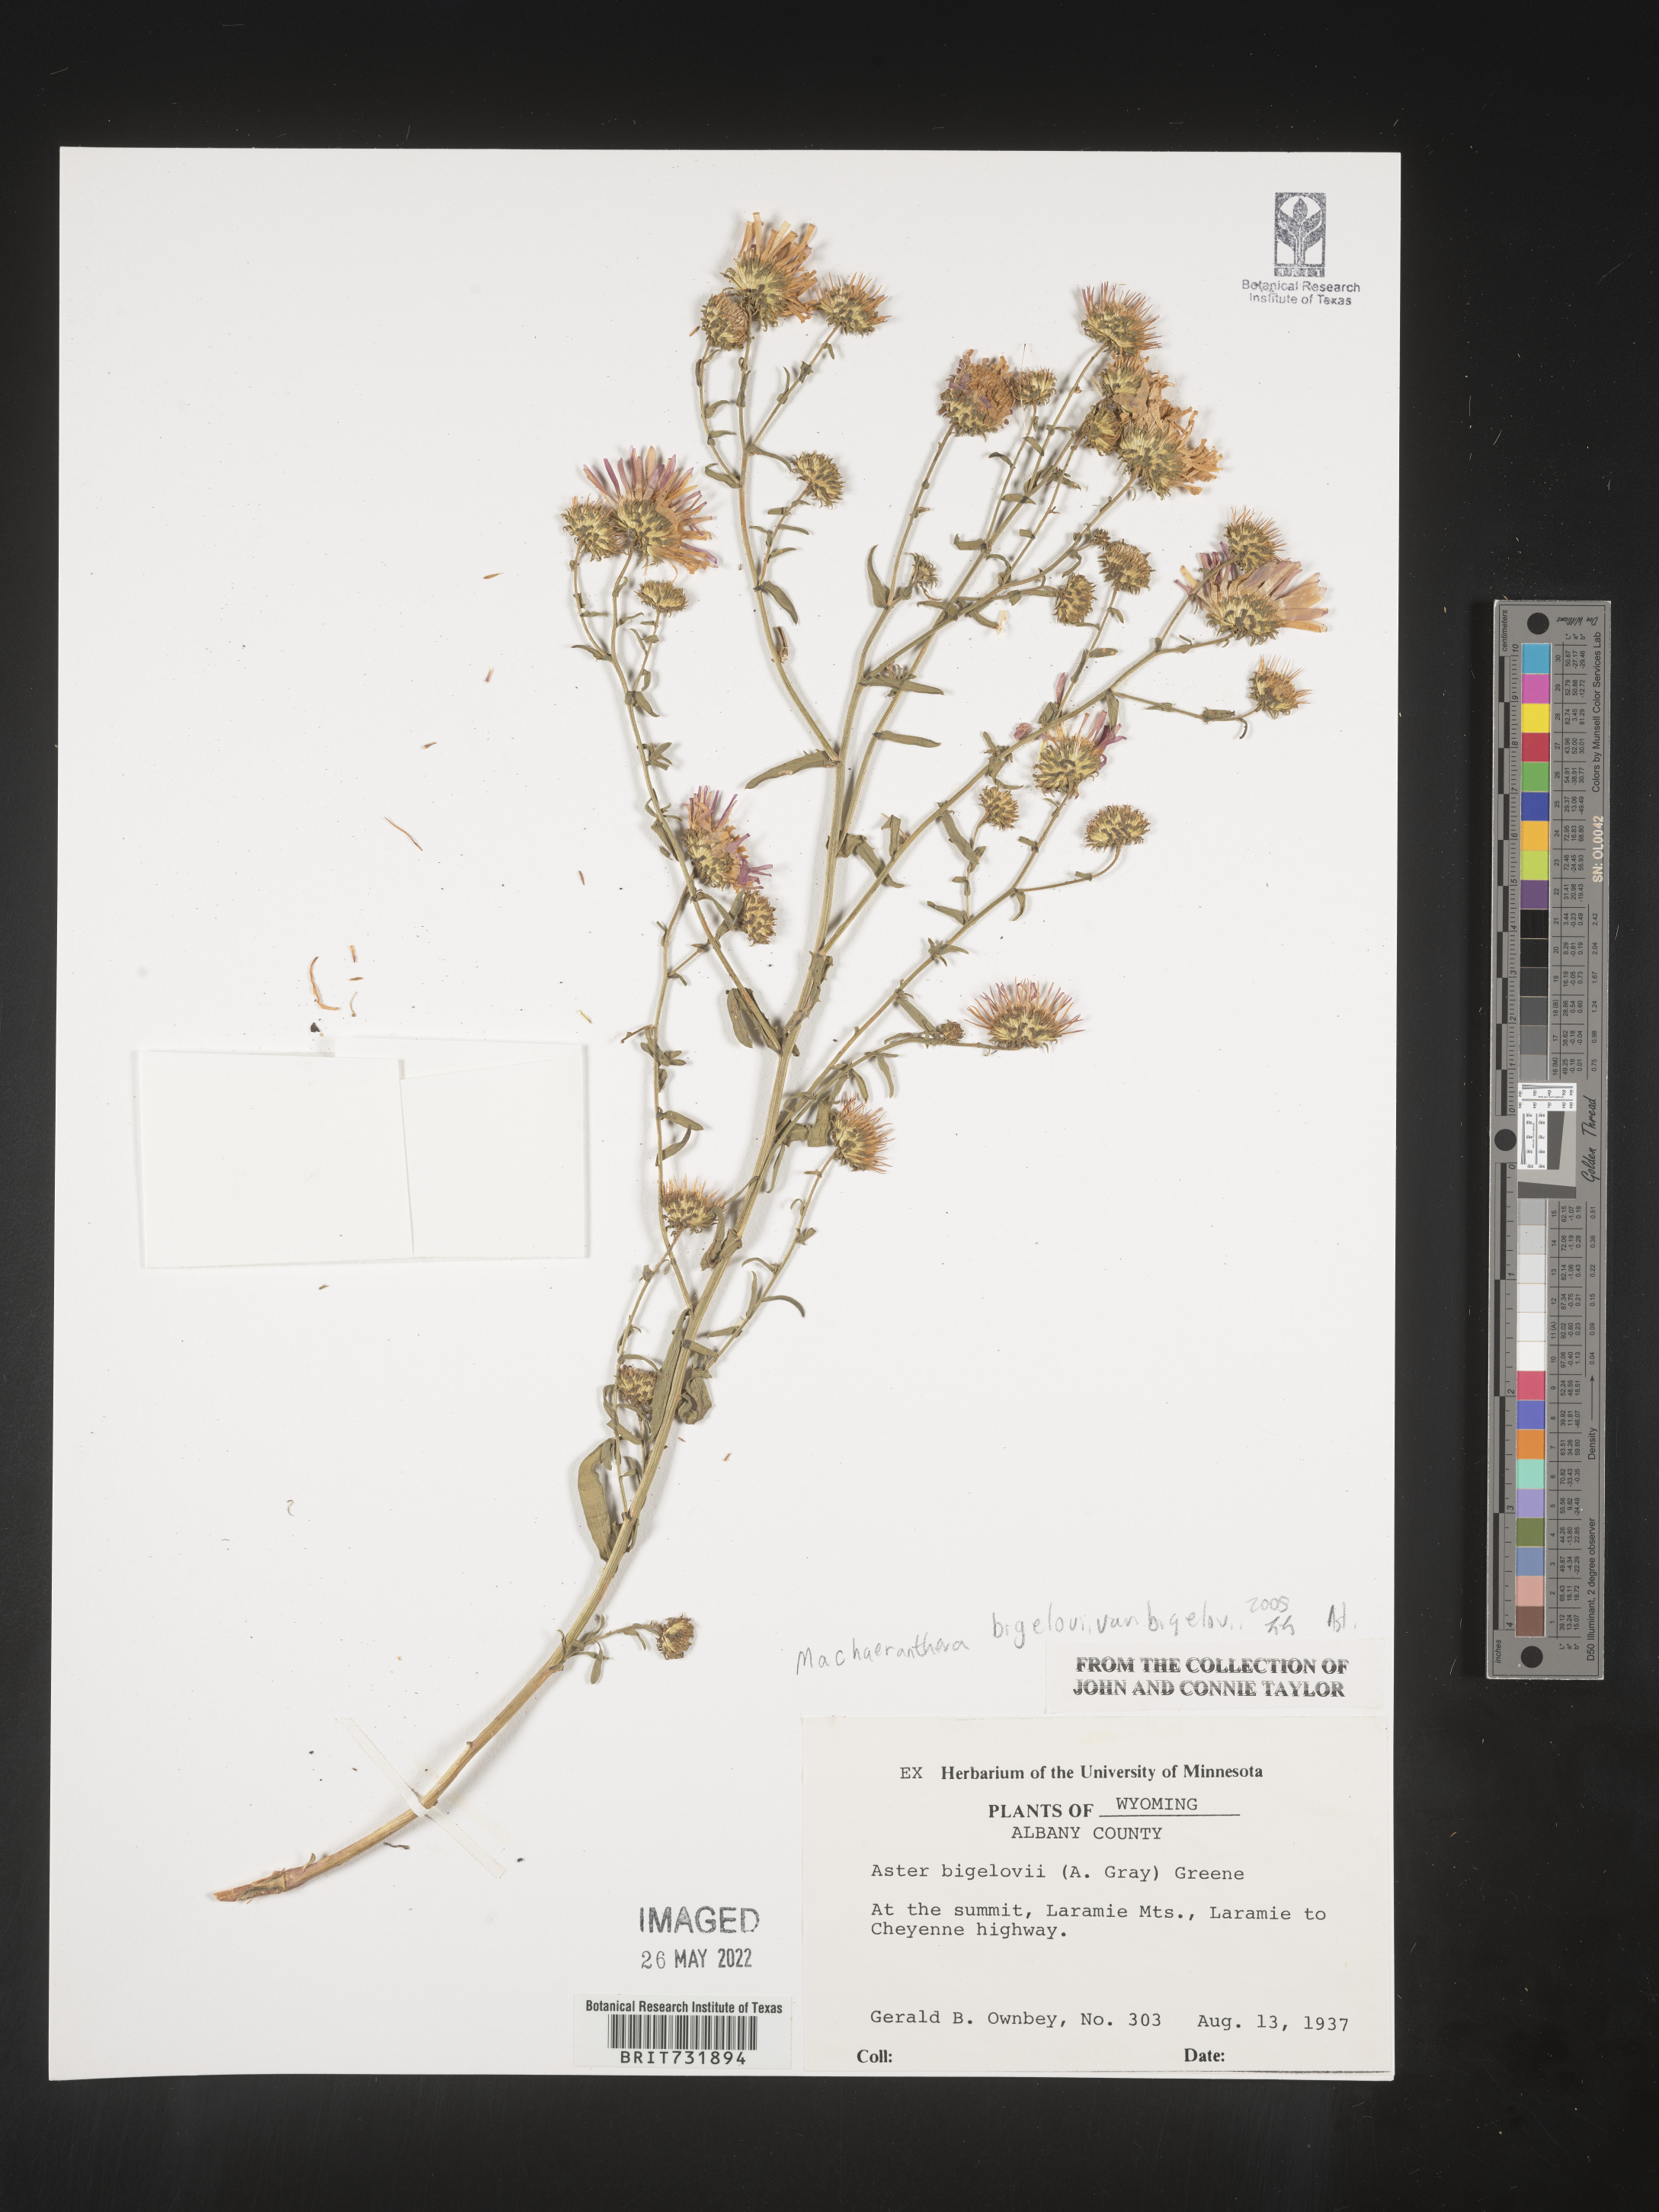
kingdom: Plantae
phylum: Tracheophyta
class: Magnoliopsida
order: Asterales
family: Asteraceae
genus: Dieteria
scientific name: Dieteria bigelovii
